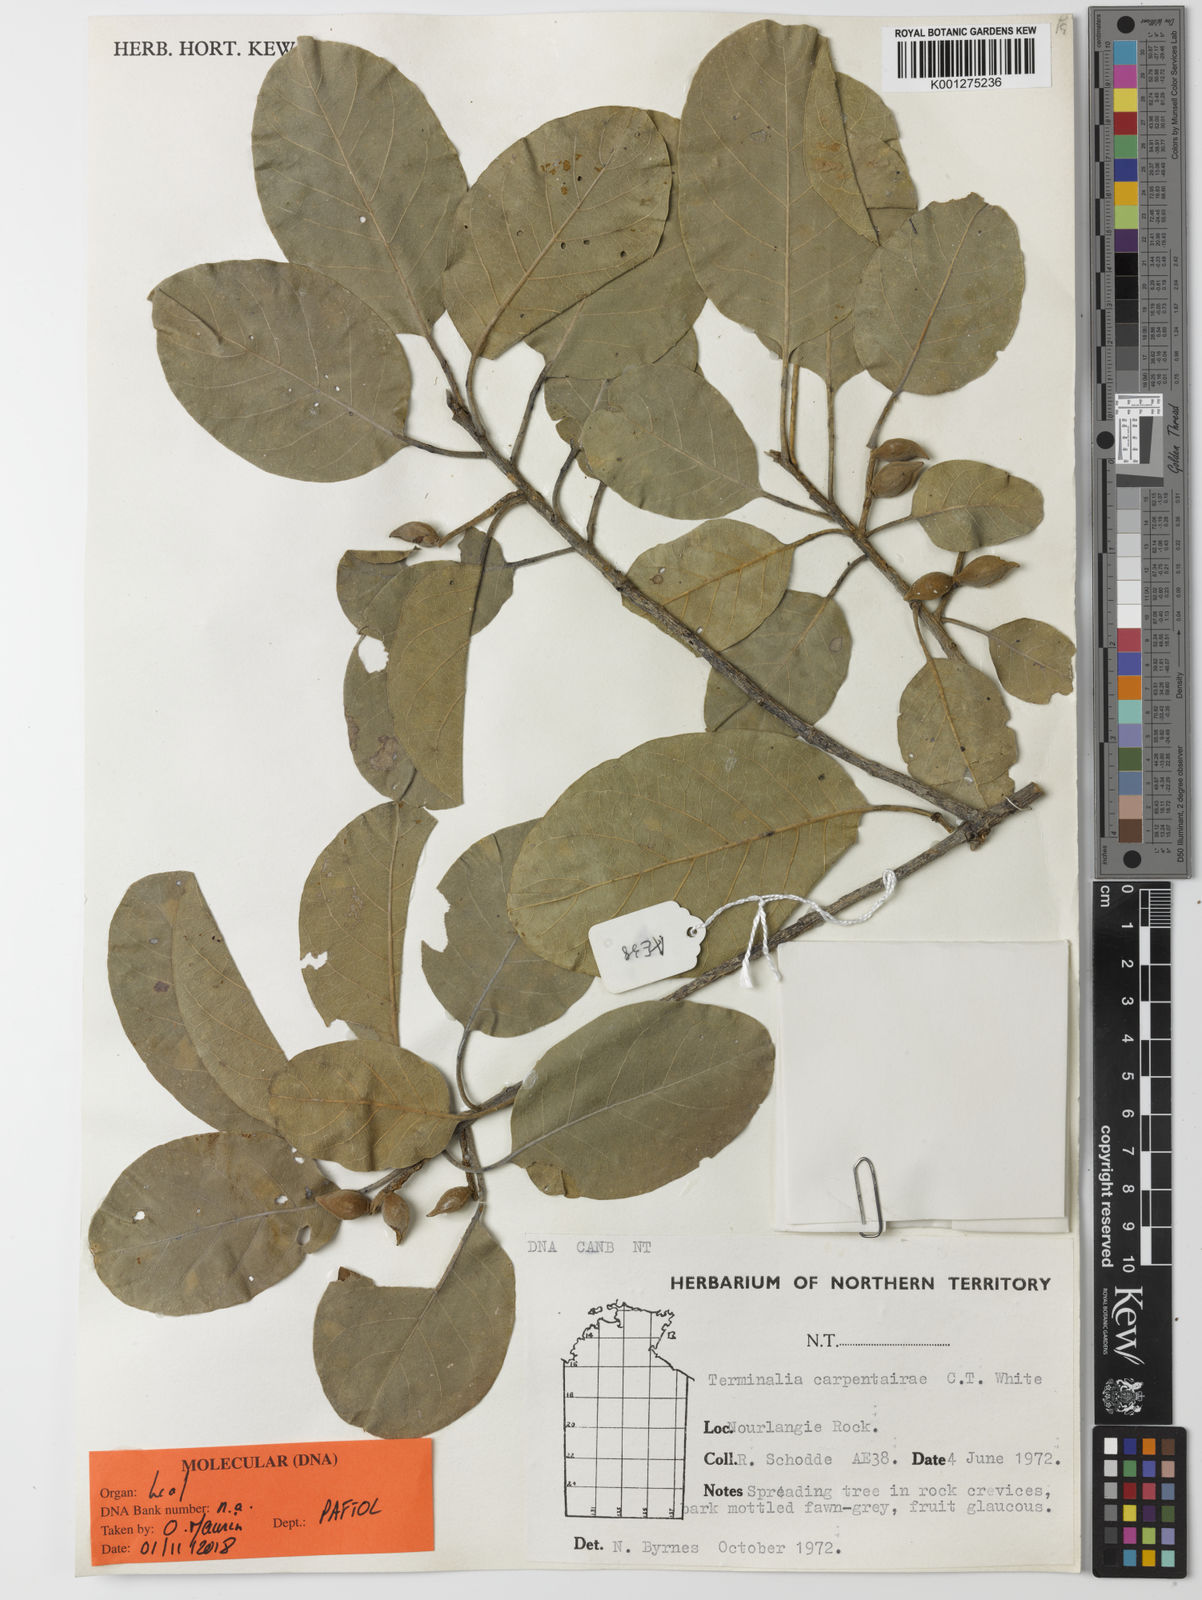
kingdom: Plantae
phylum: Tracheophyta
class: Magnoliopsida
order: Myrtales
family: Combretaceae
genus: Terminalia
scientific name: Terminalia hadleyana
